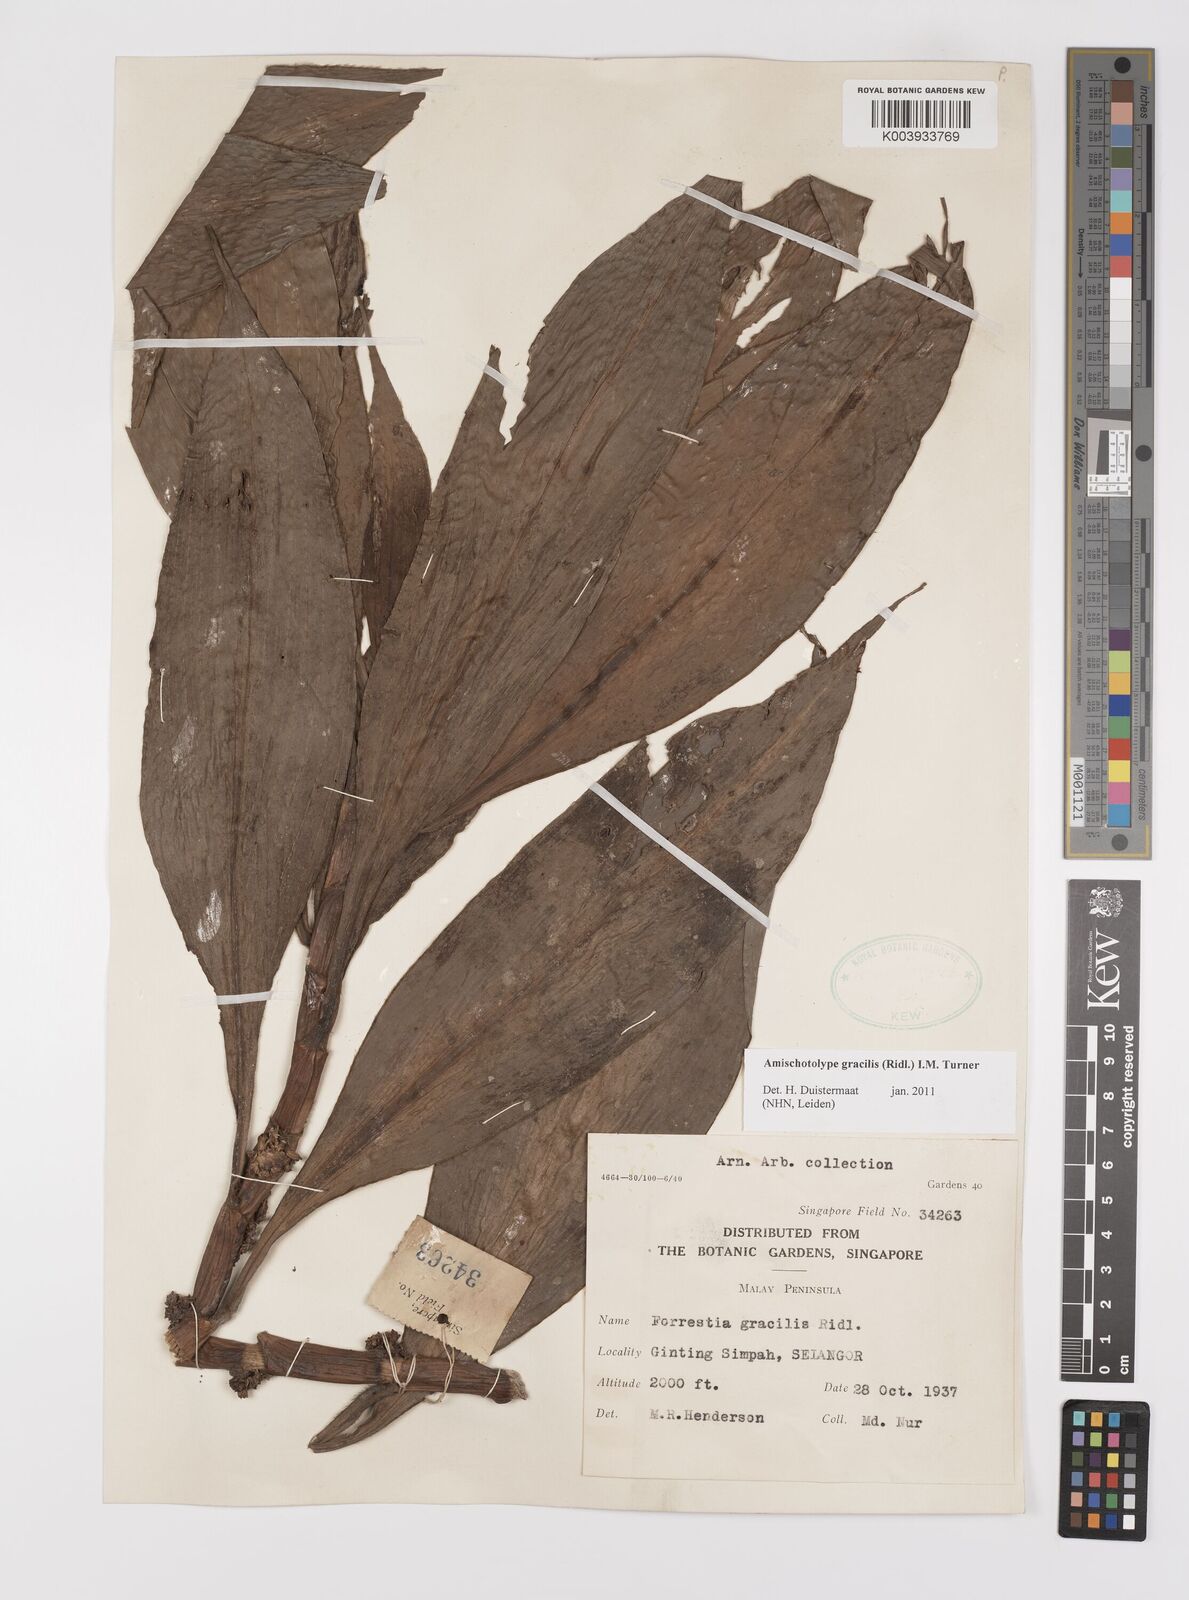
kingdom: Plantae
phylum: Tracheophyta
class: Liliopsida
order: Commelinales
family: Commelinaceae
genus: Amischotolype
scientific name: Amischotolype gracilis
